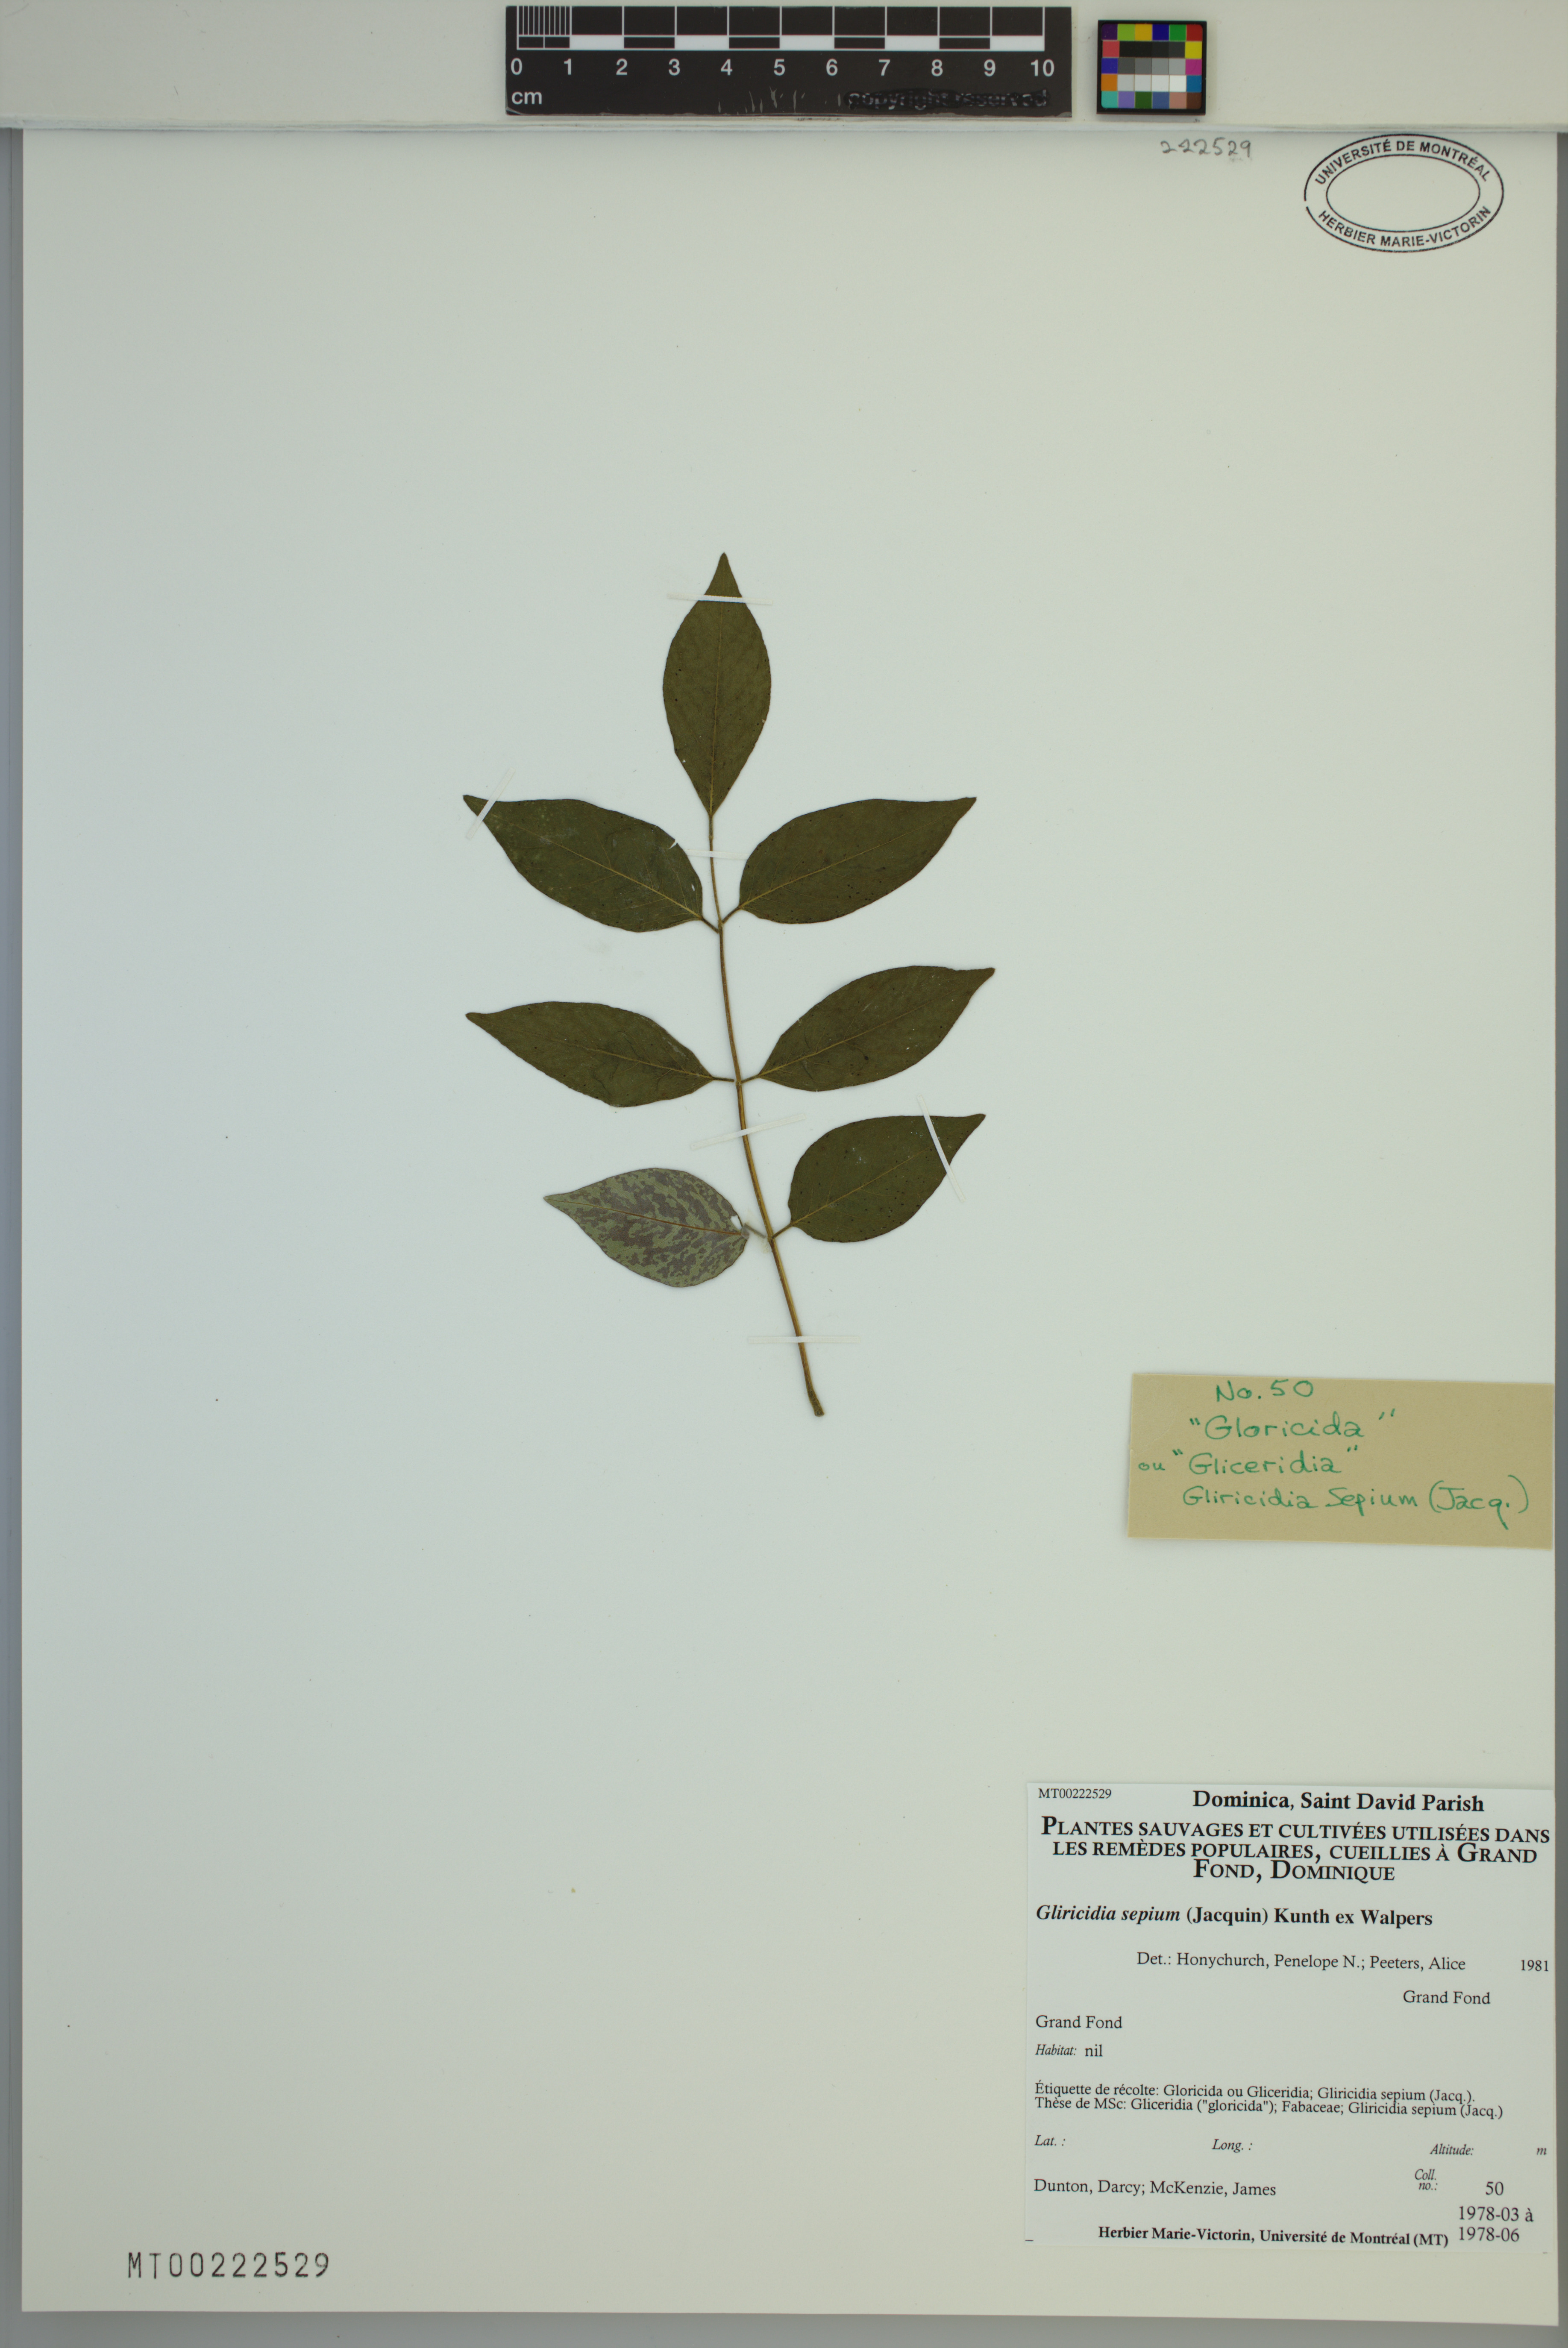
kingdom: Plantae
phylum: Tracheophyta
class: Magnoliopsida
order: Fabales
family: Fabaceae
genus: Gliricidia
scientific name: Gliricidia sepium
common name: Quickstick
